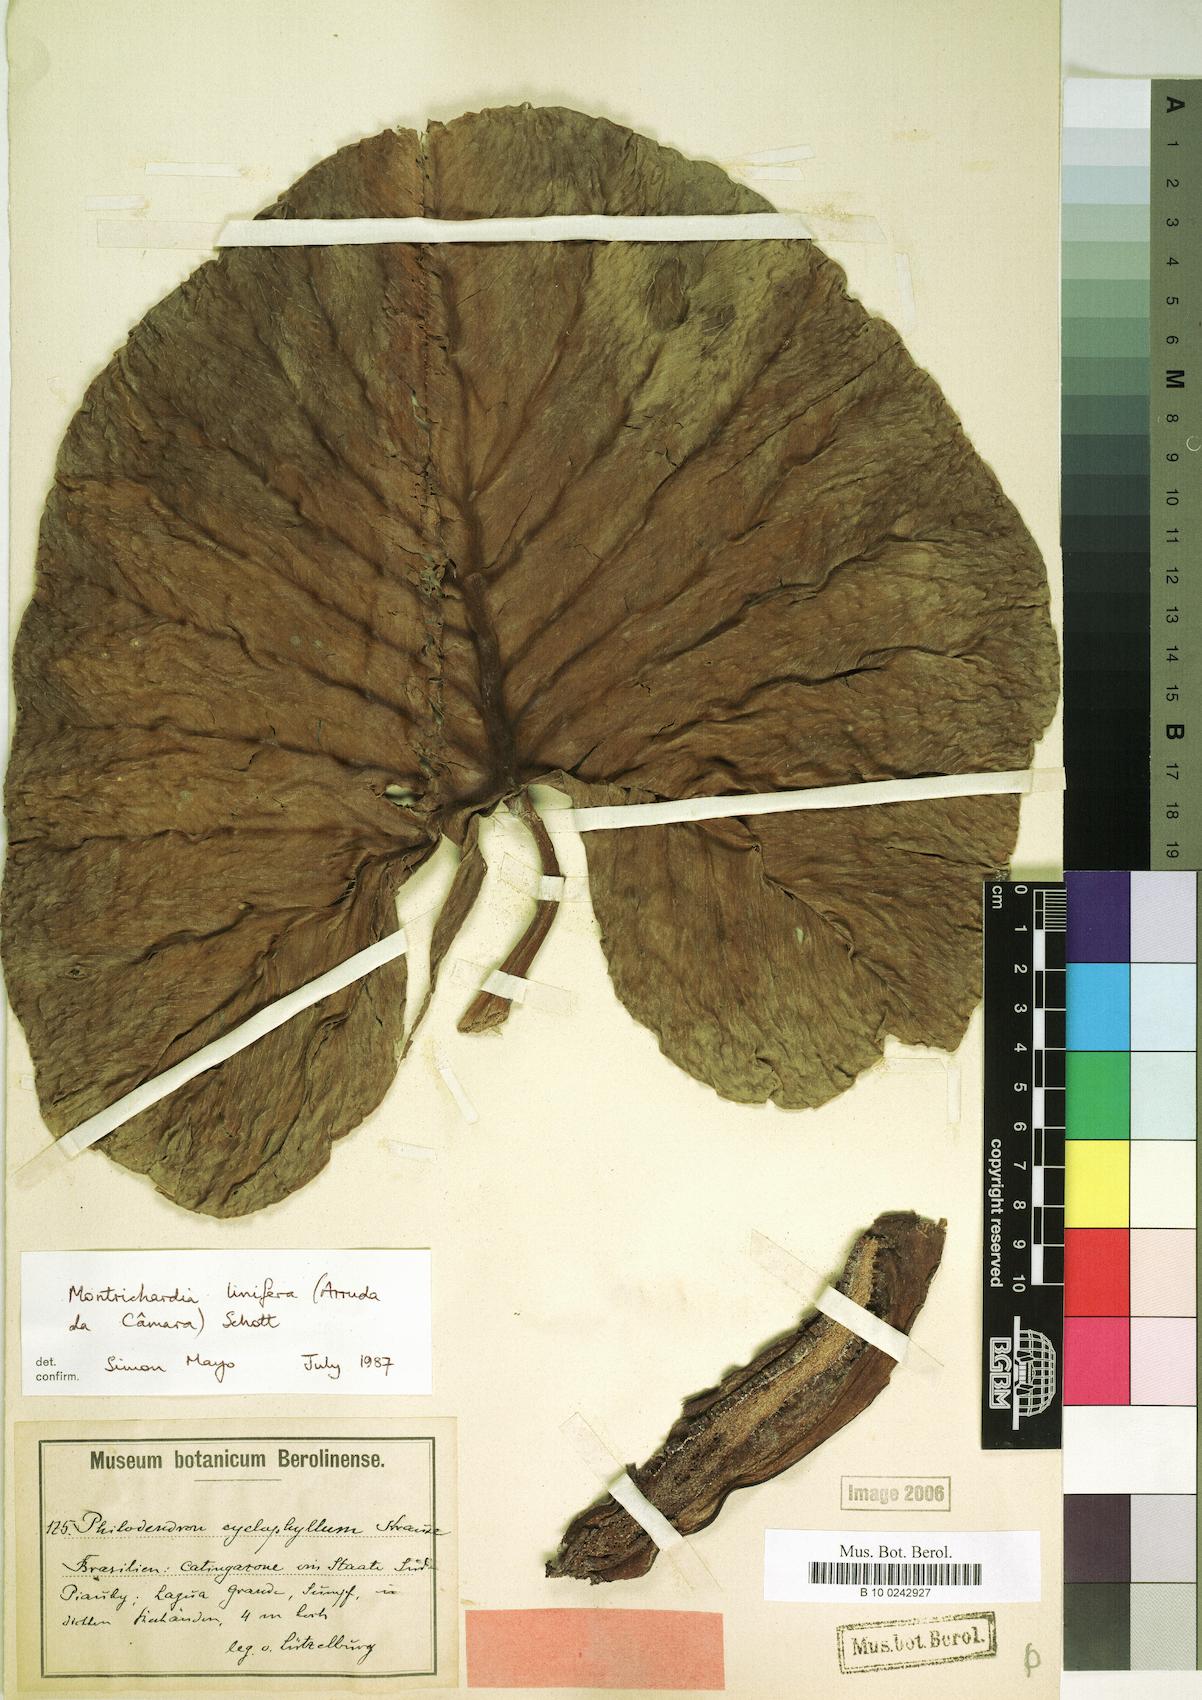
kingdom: Plantae
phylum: Tracheophyta
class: Liliopsida
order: Alismatales
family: Araceae
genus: Montrichardia
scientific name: Montrichardia linifera
